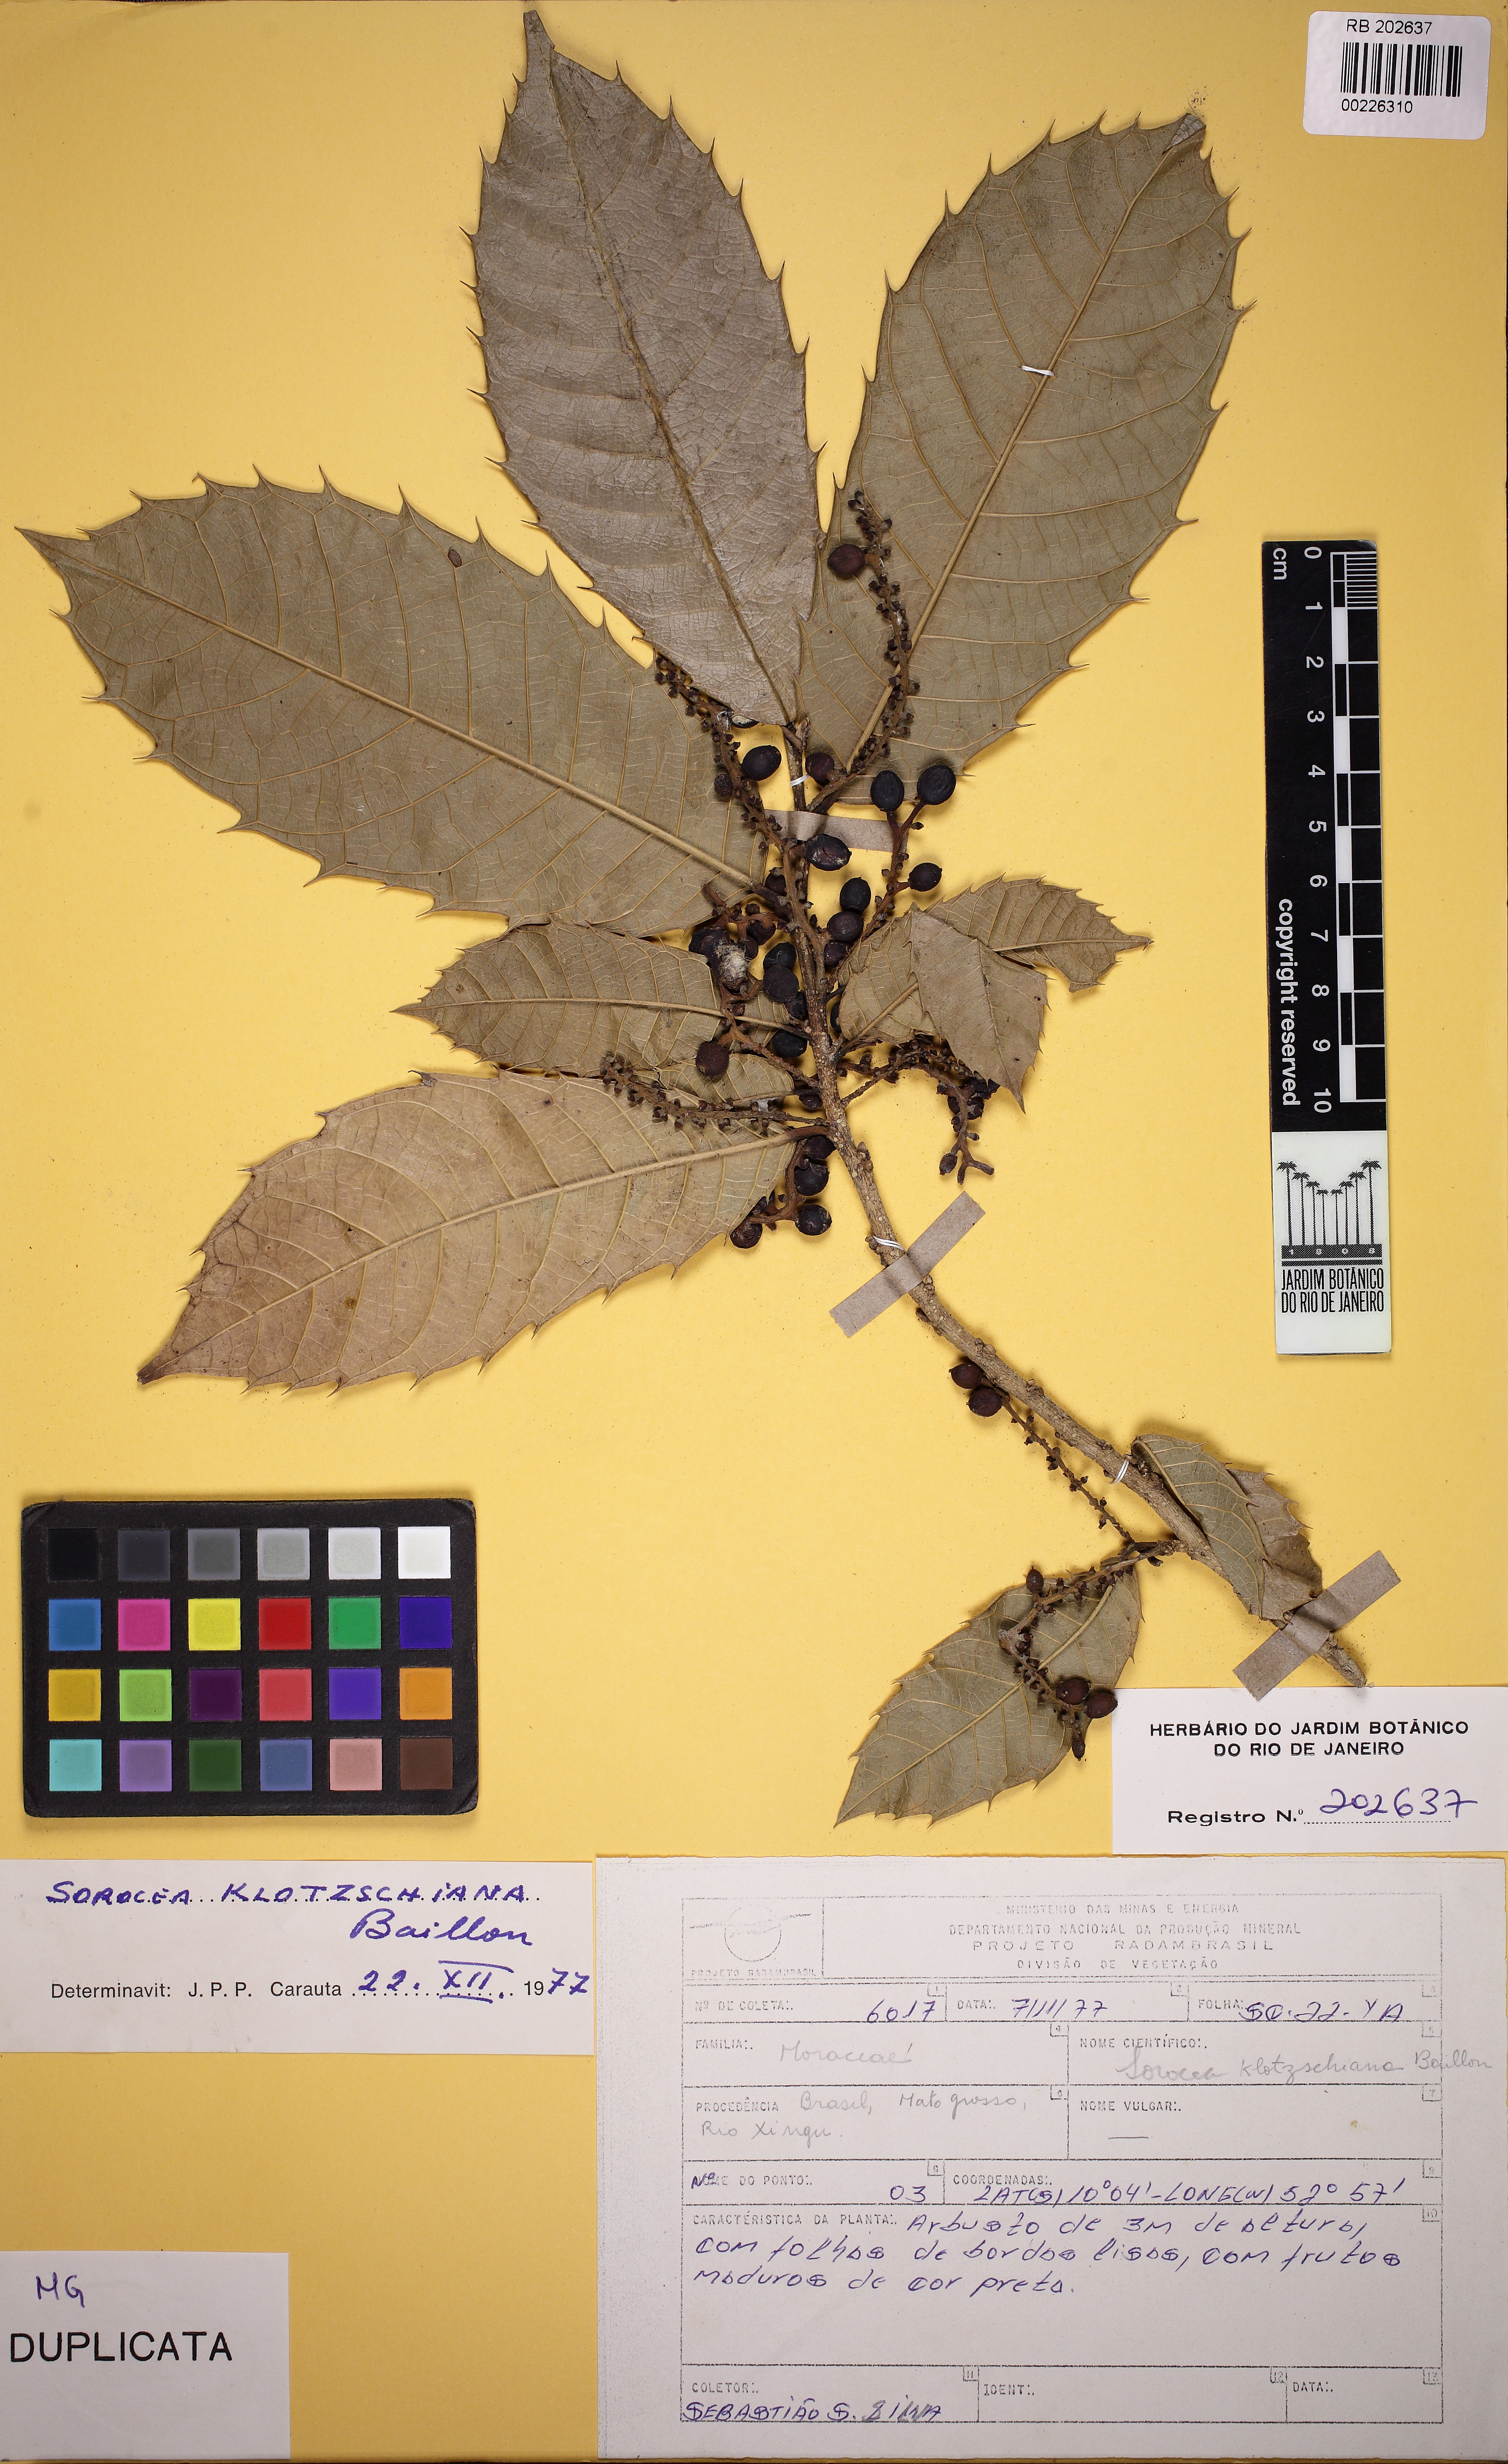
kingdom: Plantae
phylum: Tracheophyta
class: Magnoliopsida
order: Rosales
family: Moraceae
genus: Sorocea
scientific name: Sorocea guilleminiana
